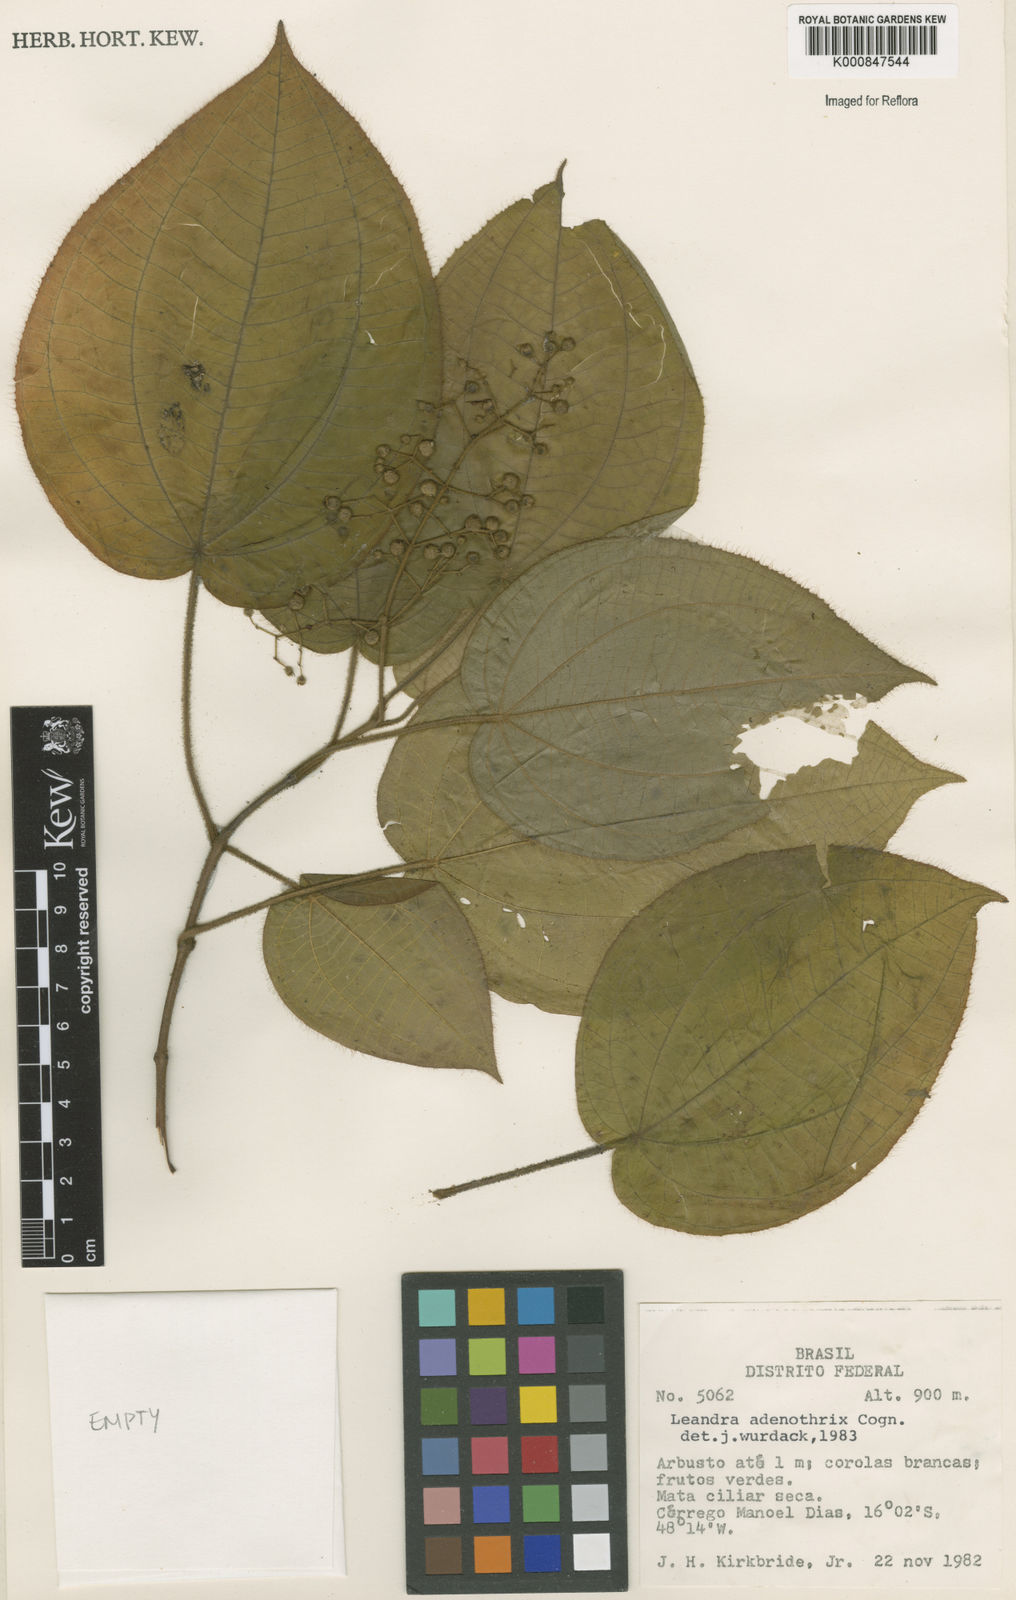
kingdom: Plantae
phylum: Tracheophyta
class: Magnoliopsida
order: Myrtales
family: Melastomataceae
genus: Miconia
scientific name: Miconia adenothrix
